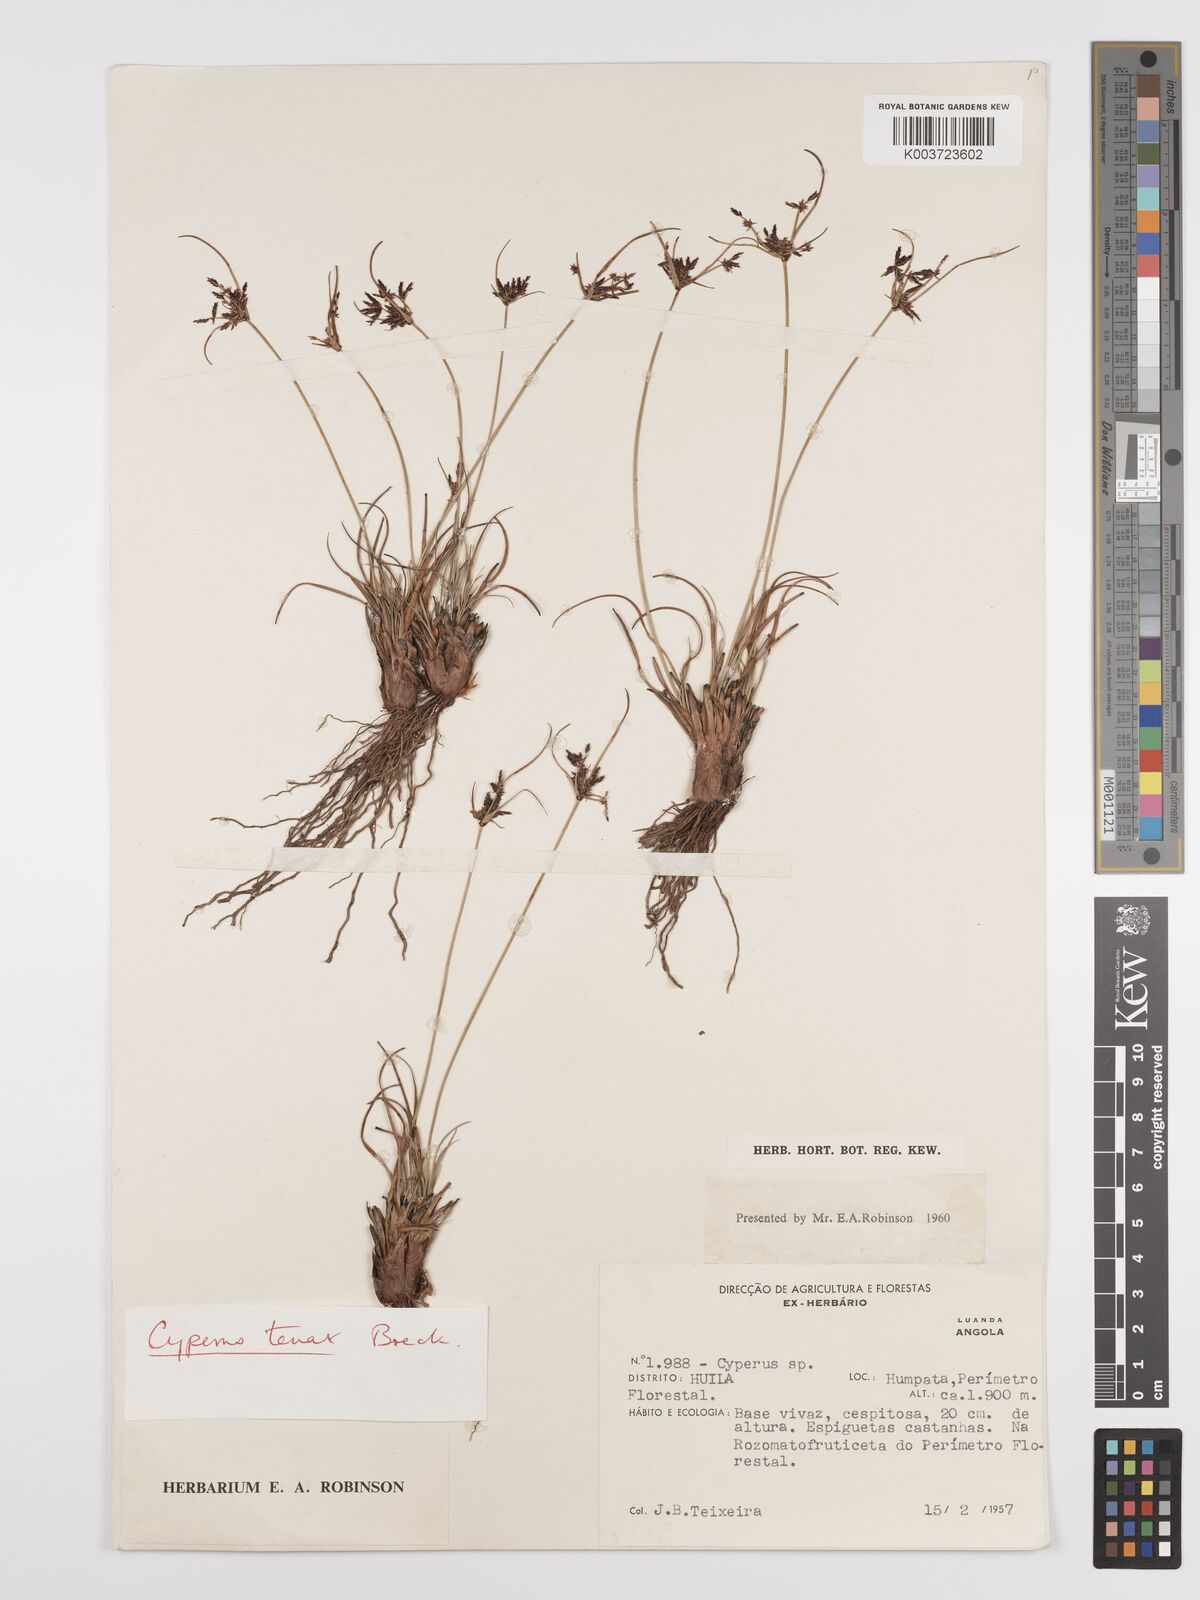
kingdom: Plantae
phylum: Tracheophyta
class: Liliopsida
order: Poales
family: Cyperaceae
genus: Cyperus
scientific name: Cyperus tenax
